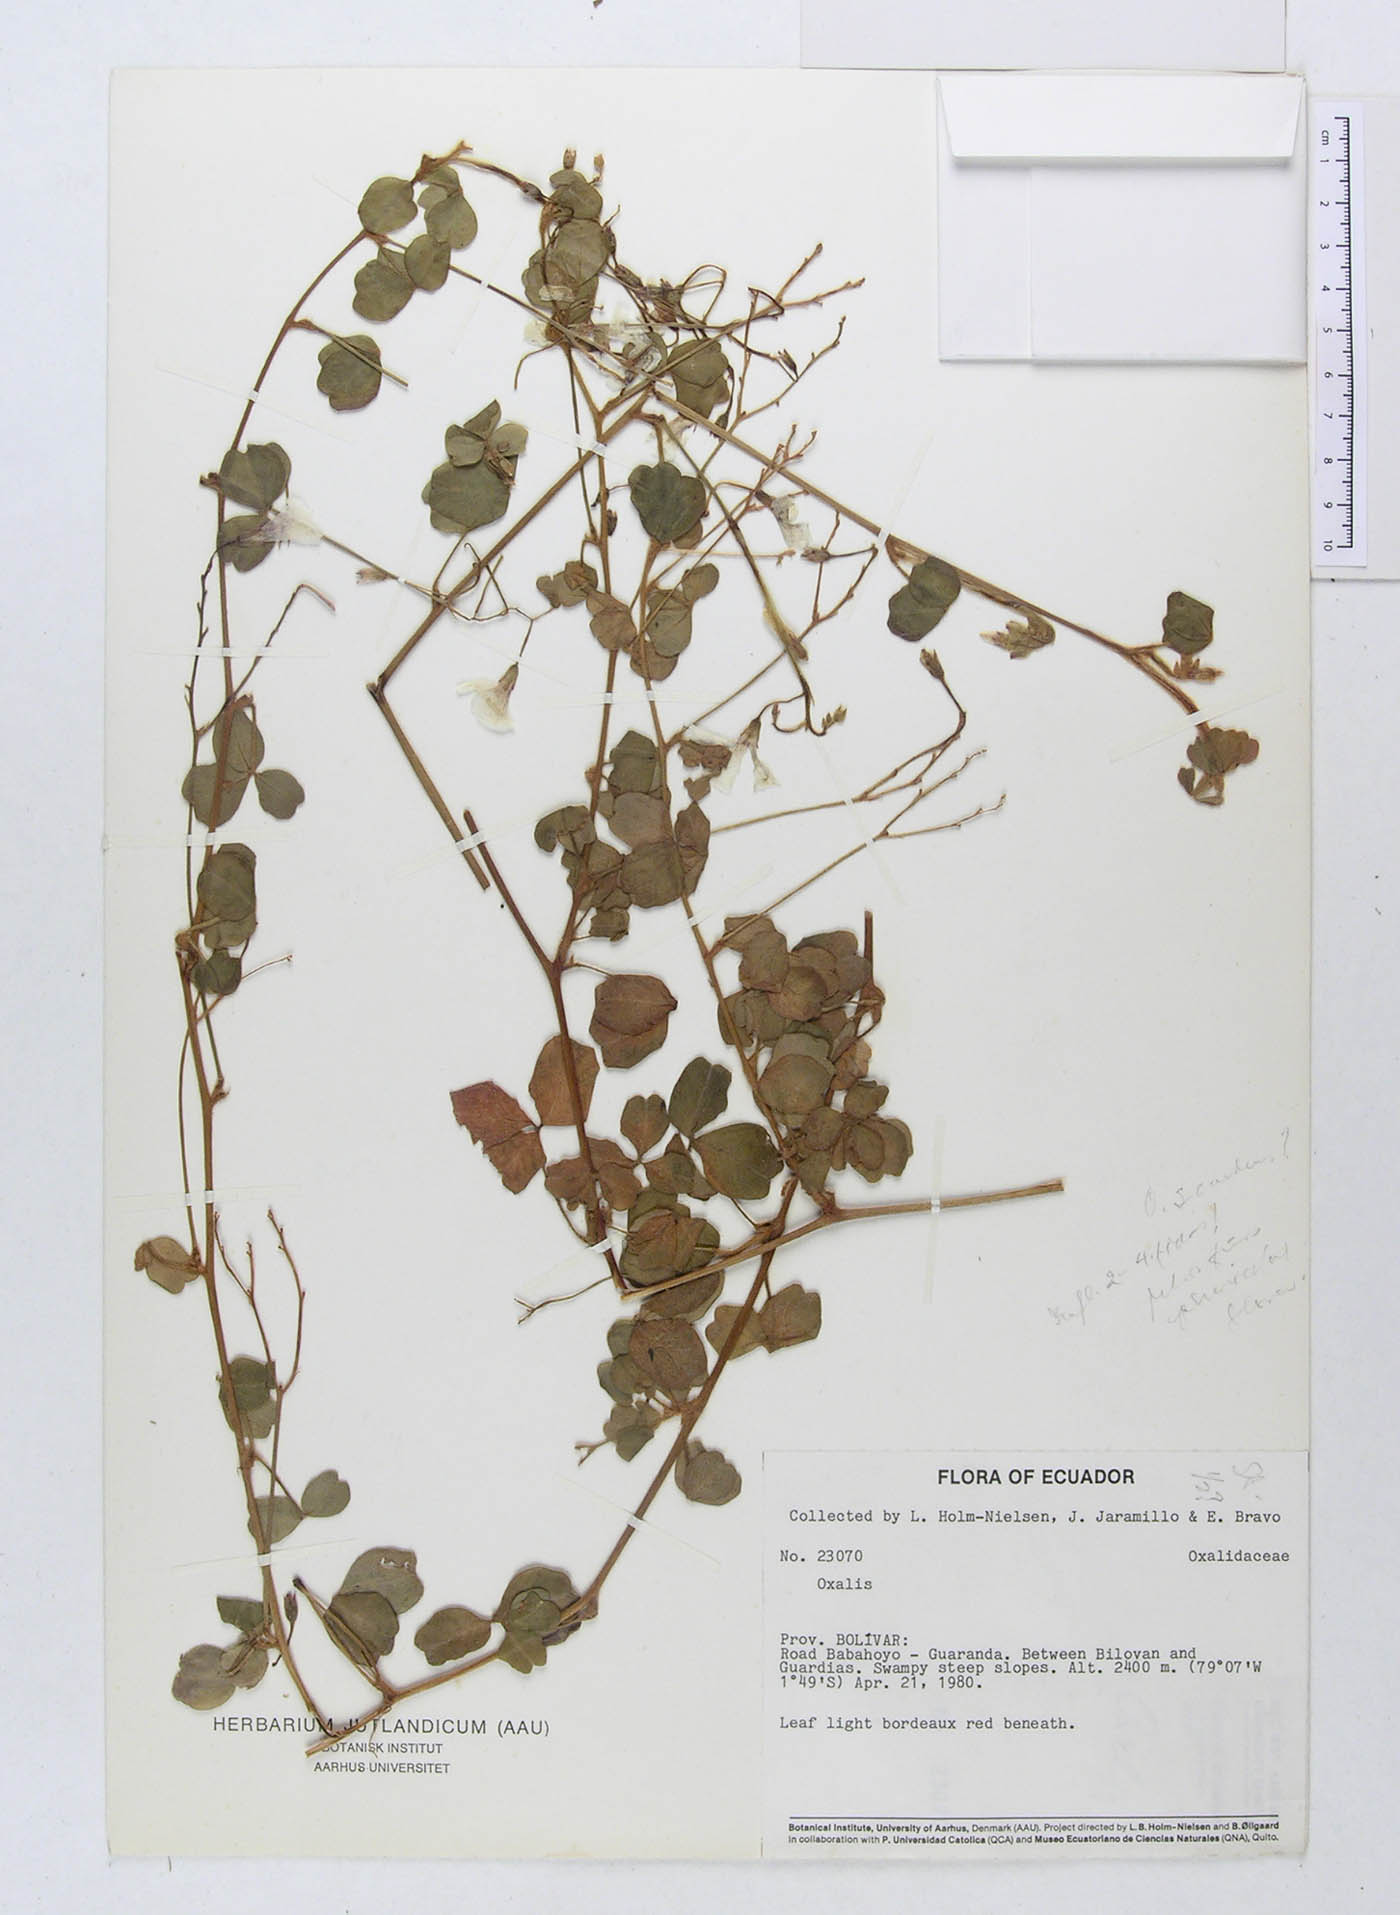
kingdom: Plantae
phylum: Tracheophyta
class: Magnoliopsida
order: Oxalidales
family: Oxalidaceae
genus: Oxalis
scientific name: Oxalis
